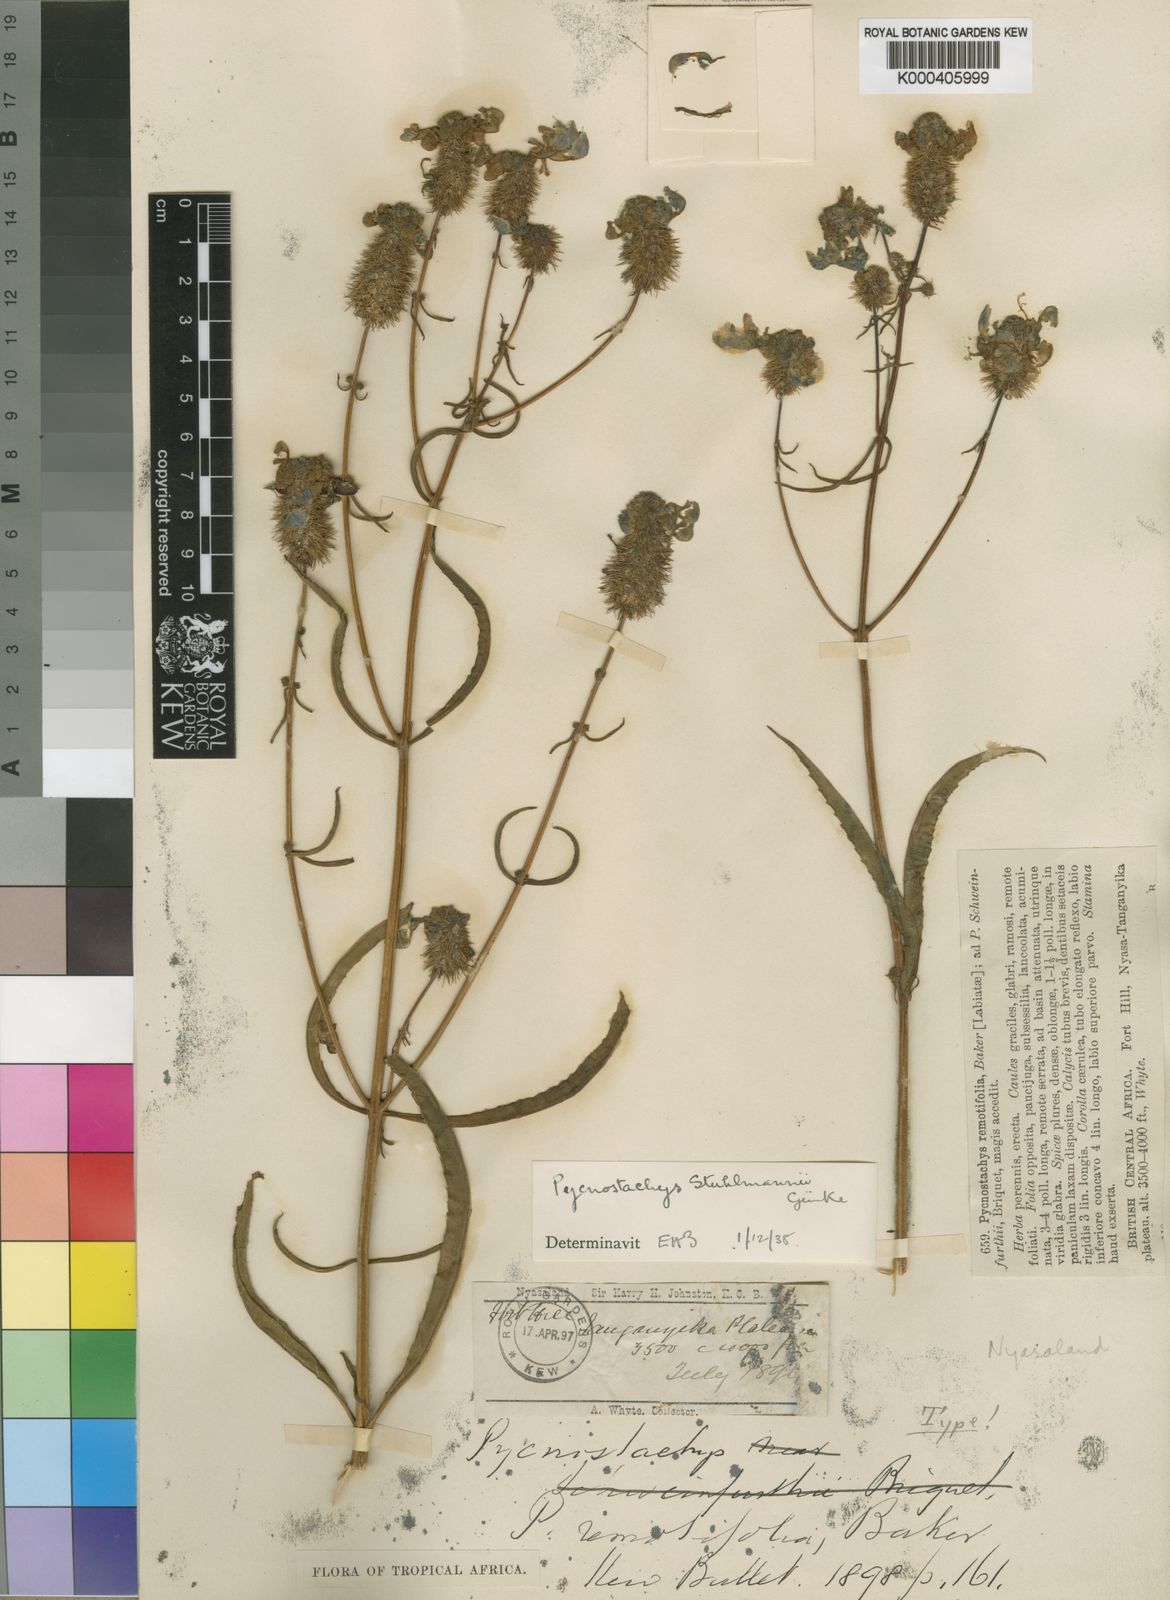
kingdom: Plantae
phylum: Tracheophyta
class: Magnoliopsida
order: Lamiales
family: Lamiaceae
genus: Coleus
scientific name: Coleus
